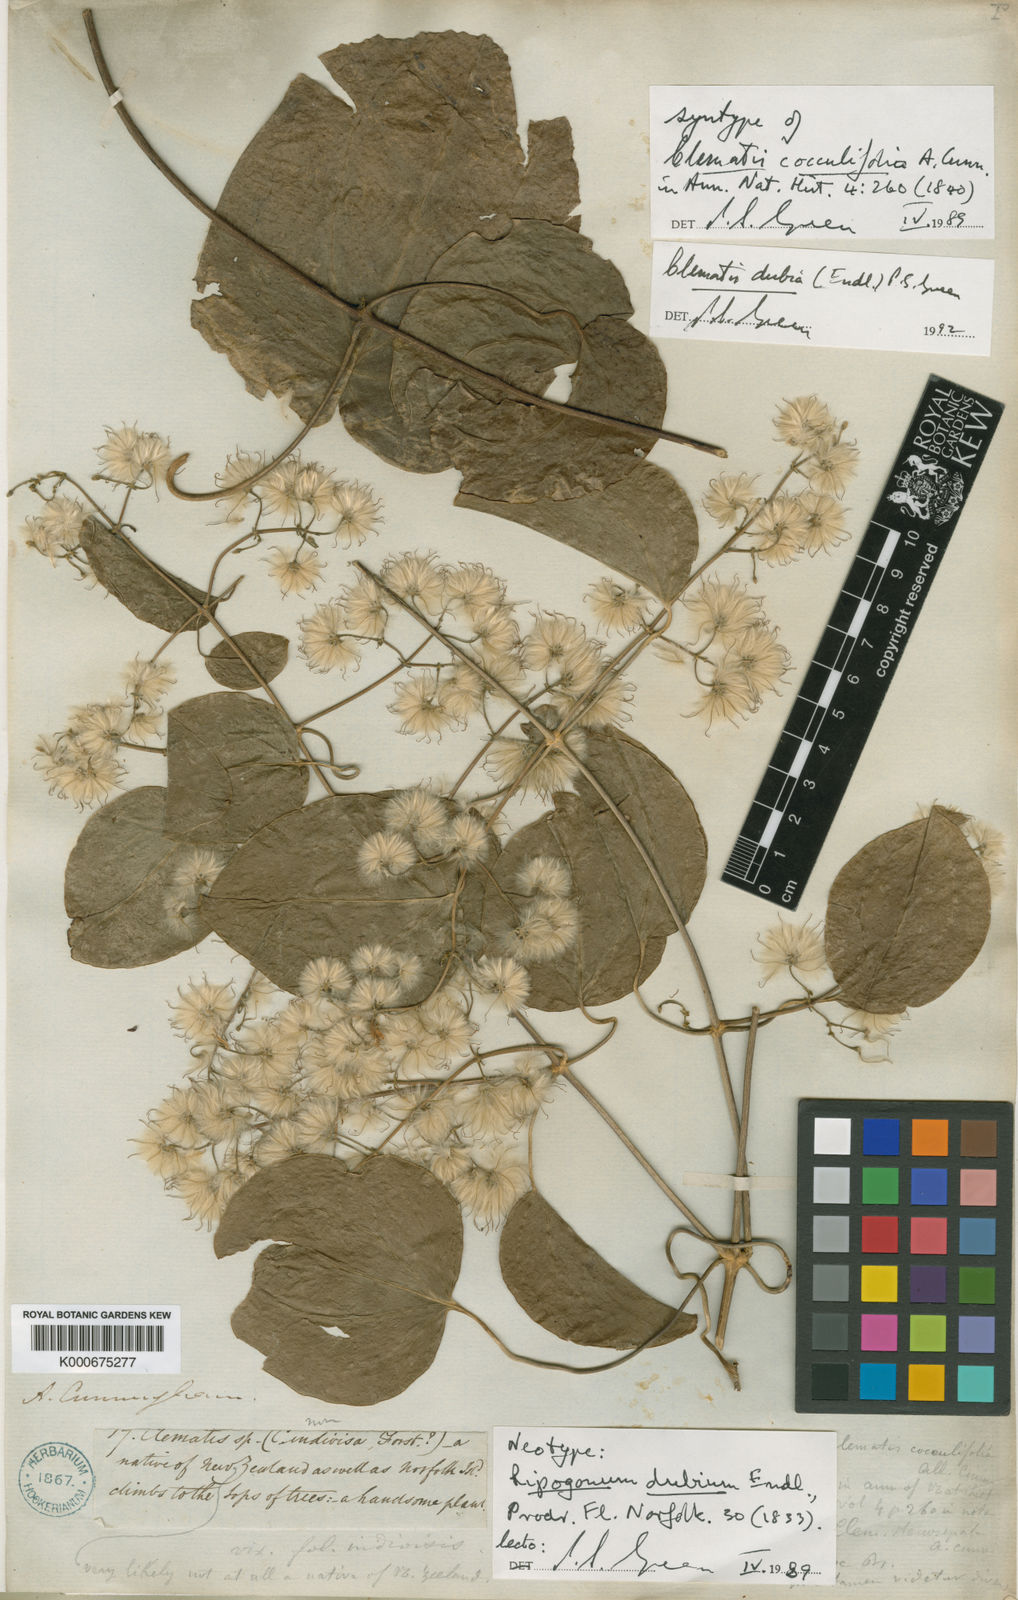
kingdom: Plantae
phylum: Tracheophyta
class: Magnoliopsida
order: Ranunculales
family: Ranunculaceae
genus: Clematis
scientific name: Clematis dubia
